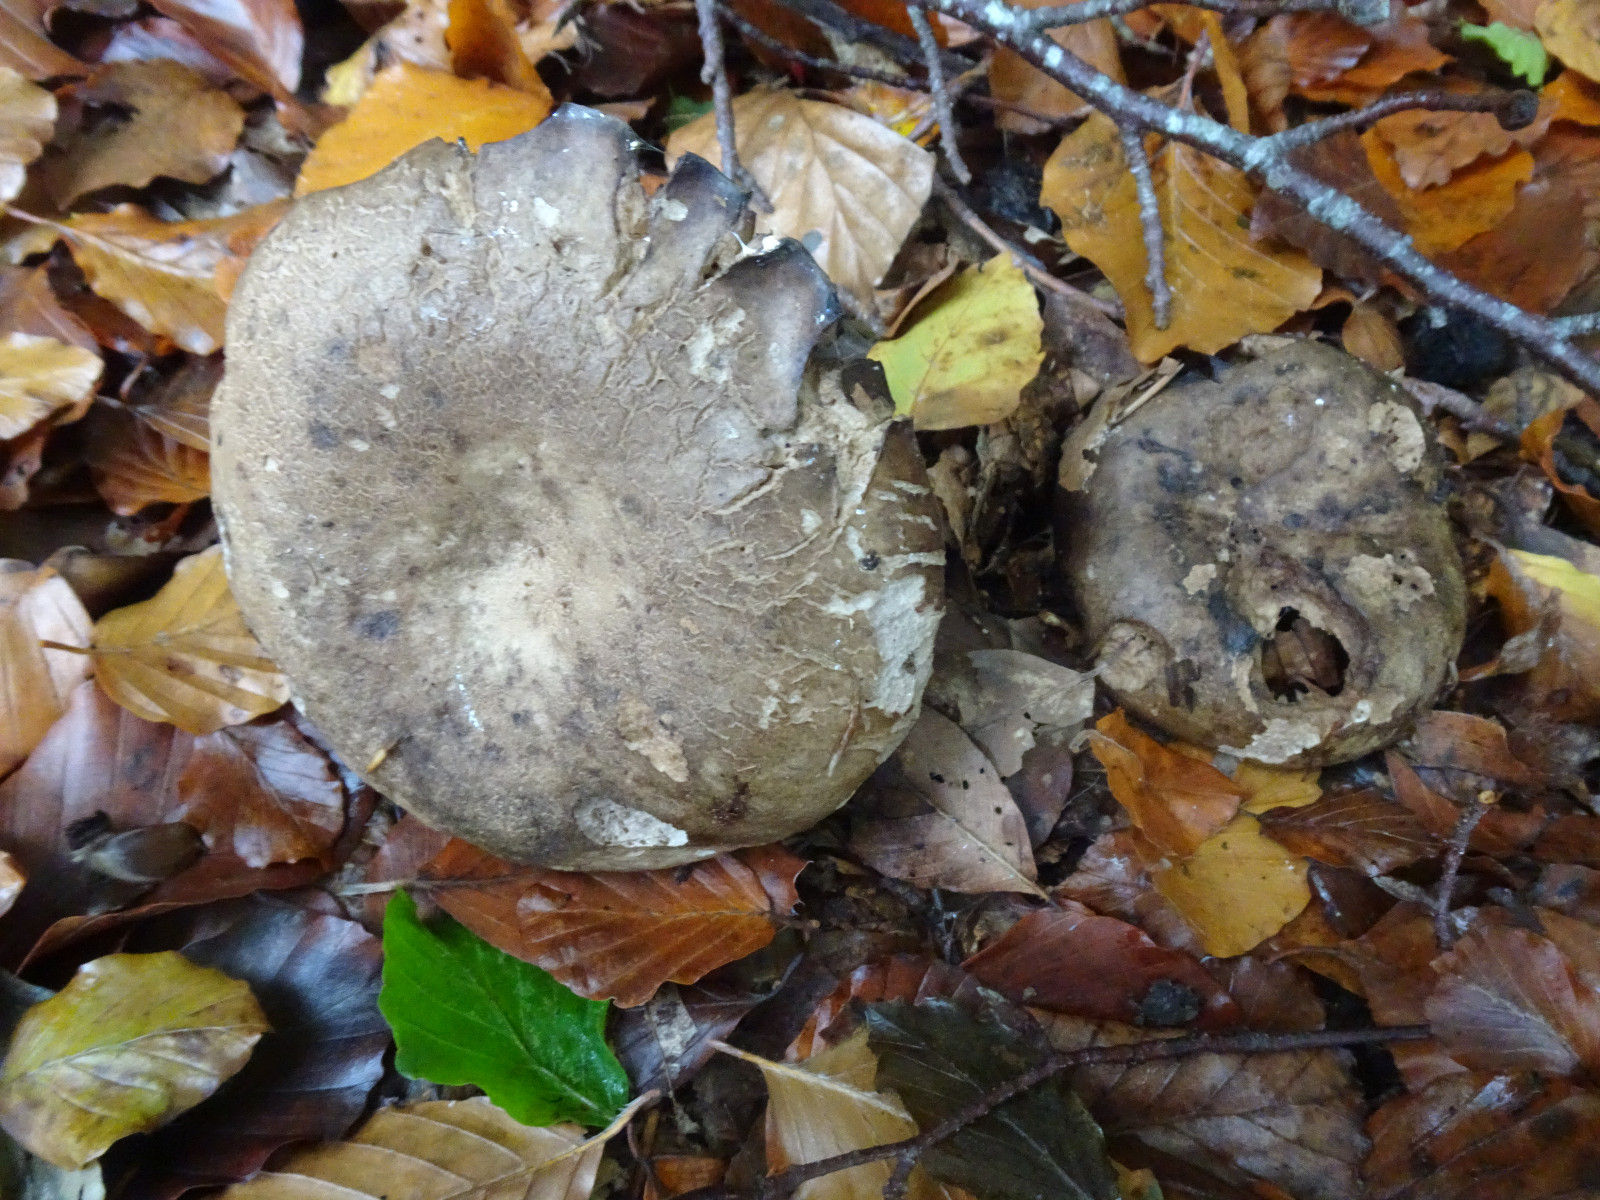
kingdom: Fungi
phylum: Basidiomycota
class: Agaricomycetes
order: Russulales
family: Russulaceae
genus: Russula
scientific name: Russula adusta
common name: sværtende skørhat
